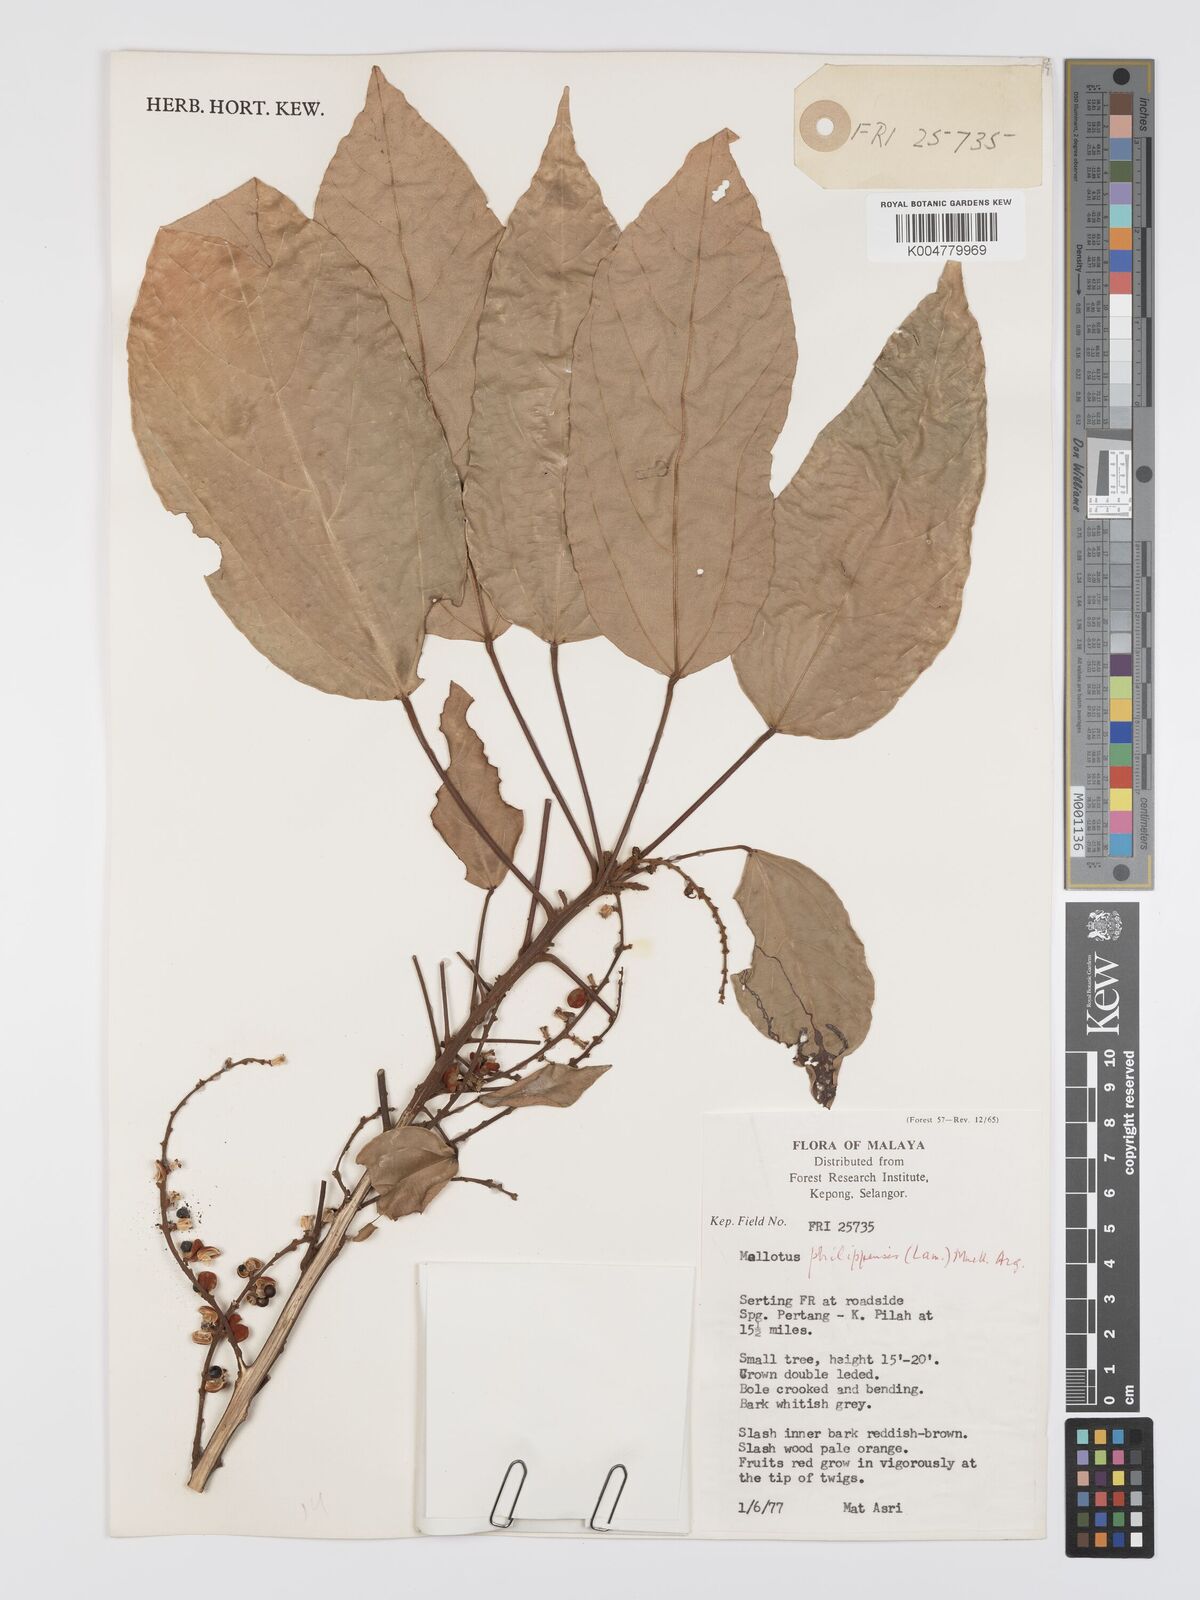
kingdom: Plantae
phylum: Tracheophyta
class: Magnoliopsida
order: Malpighiales
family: Euphorbiaceae
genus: Mallotus
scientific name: Mallotus philippensis
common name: Kamala tree
